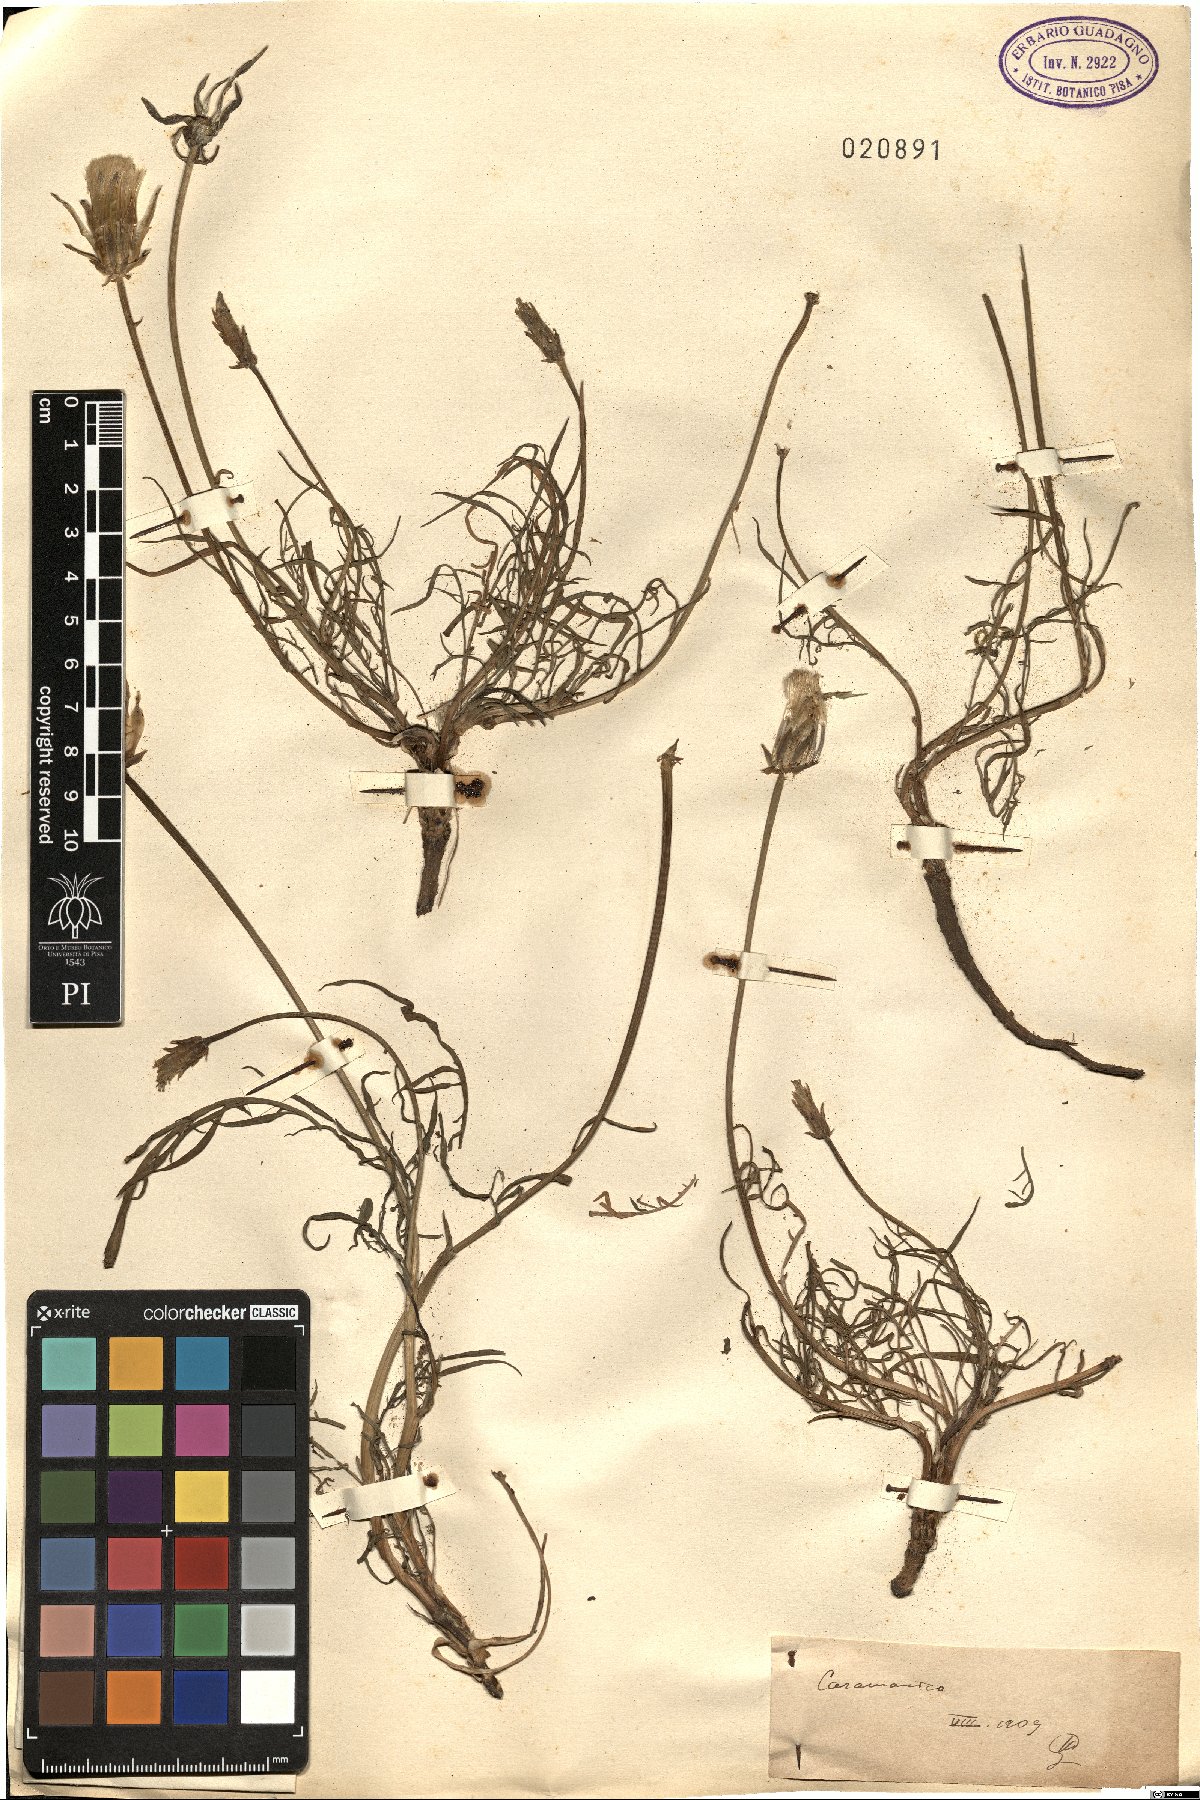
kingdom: Plantae
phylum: Tracheophyta
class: Magnoliopsida
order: Asterales
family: Asteraceae
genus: Scorzonera
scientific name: Scorzonera
